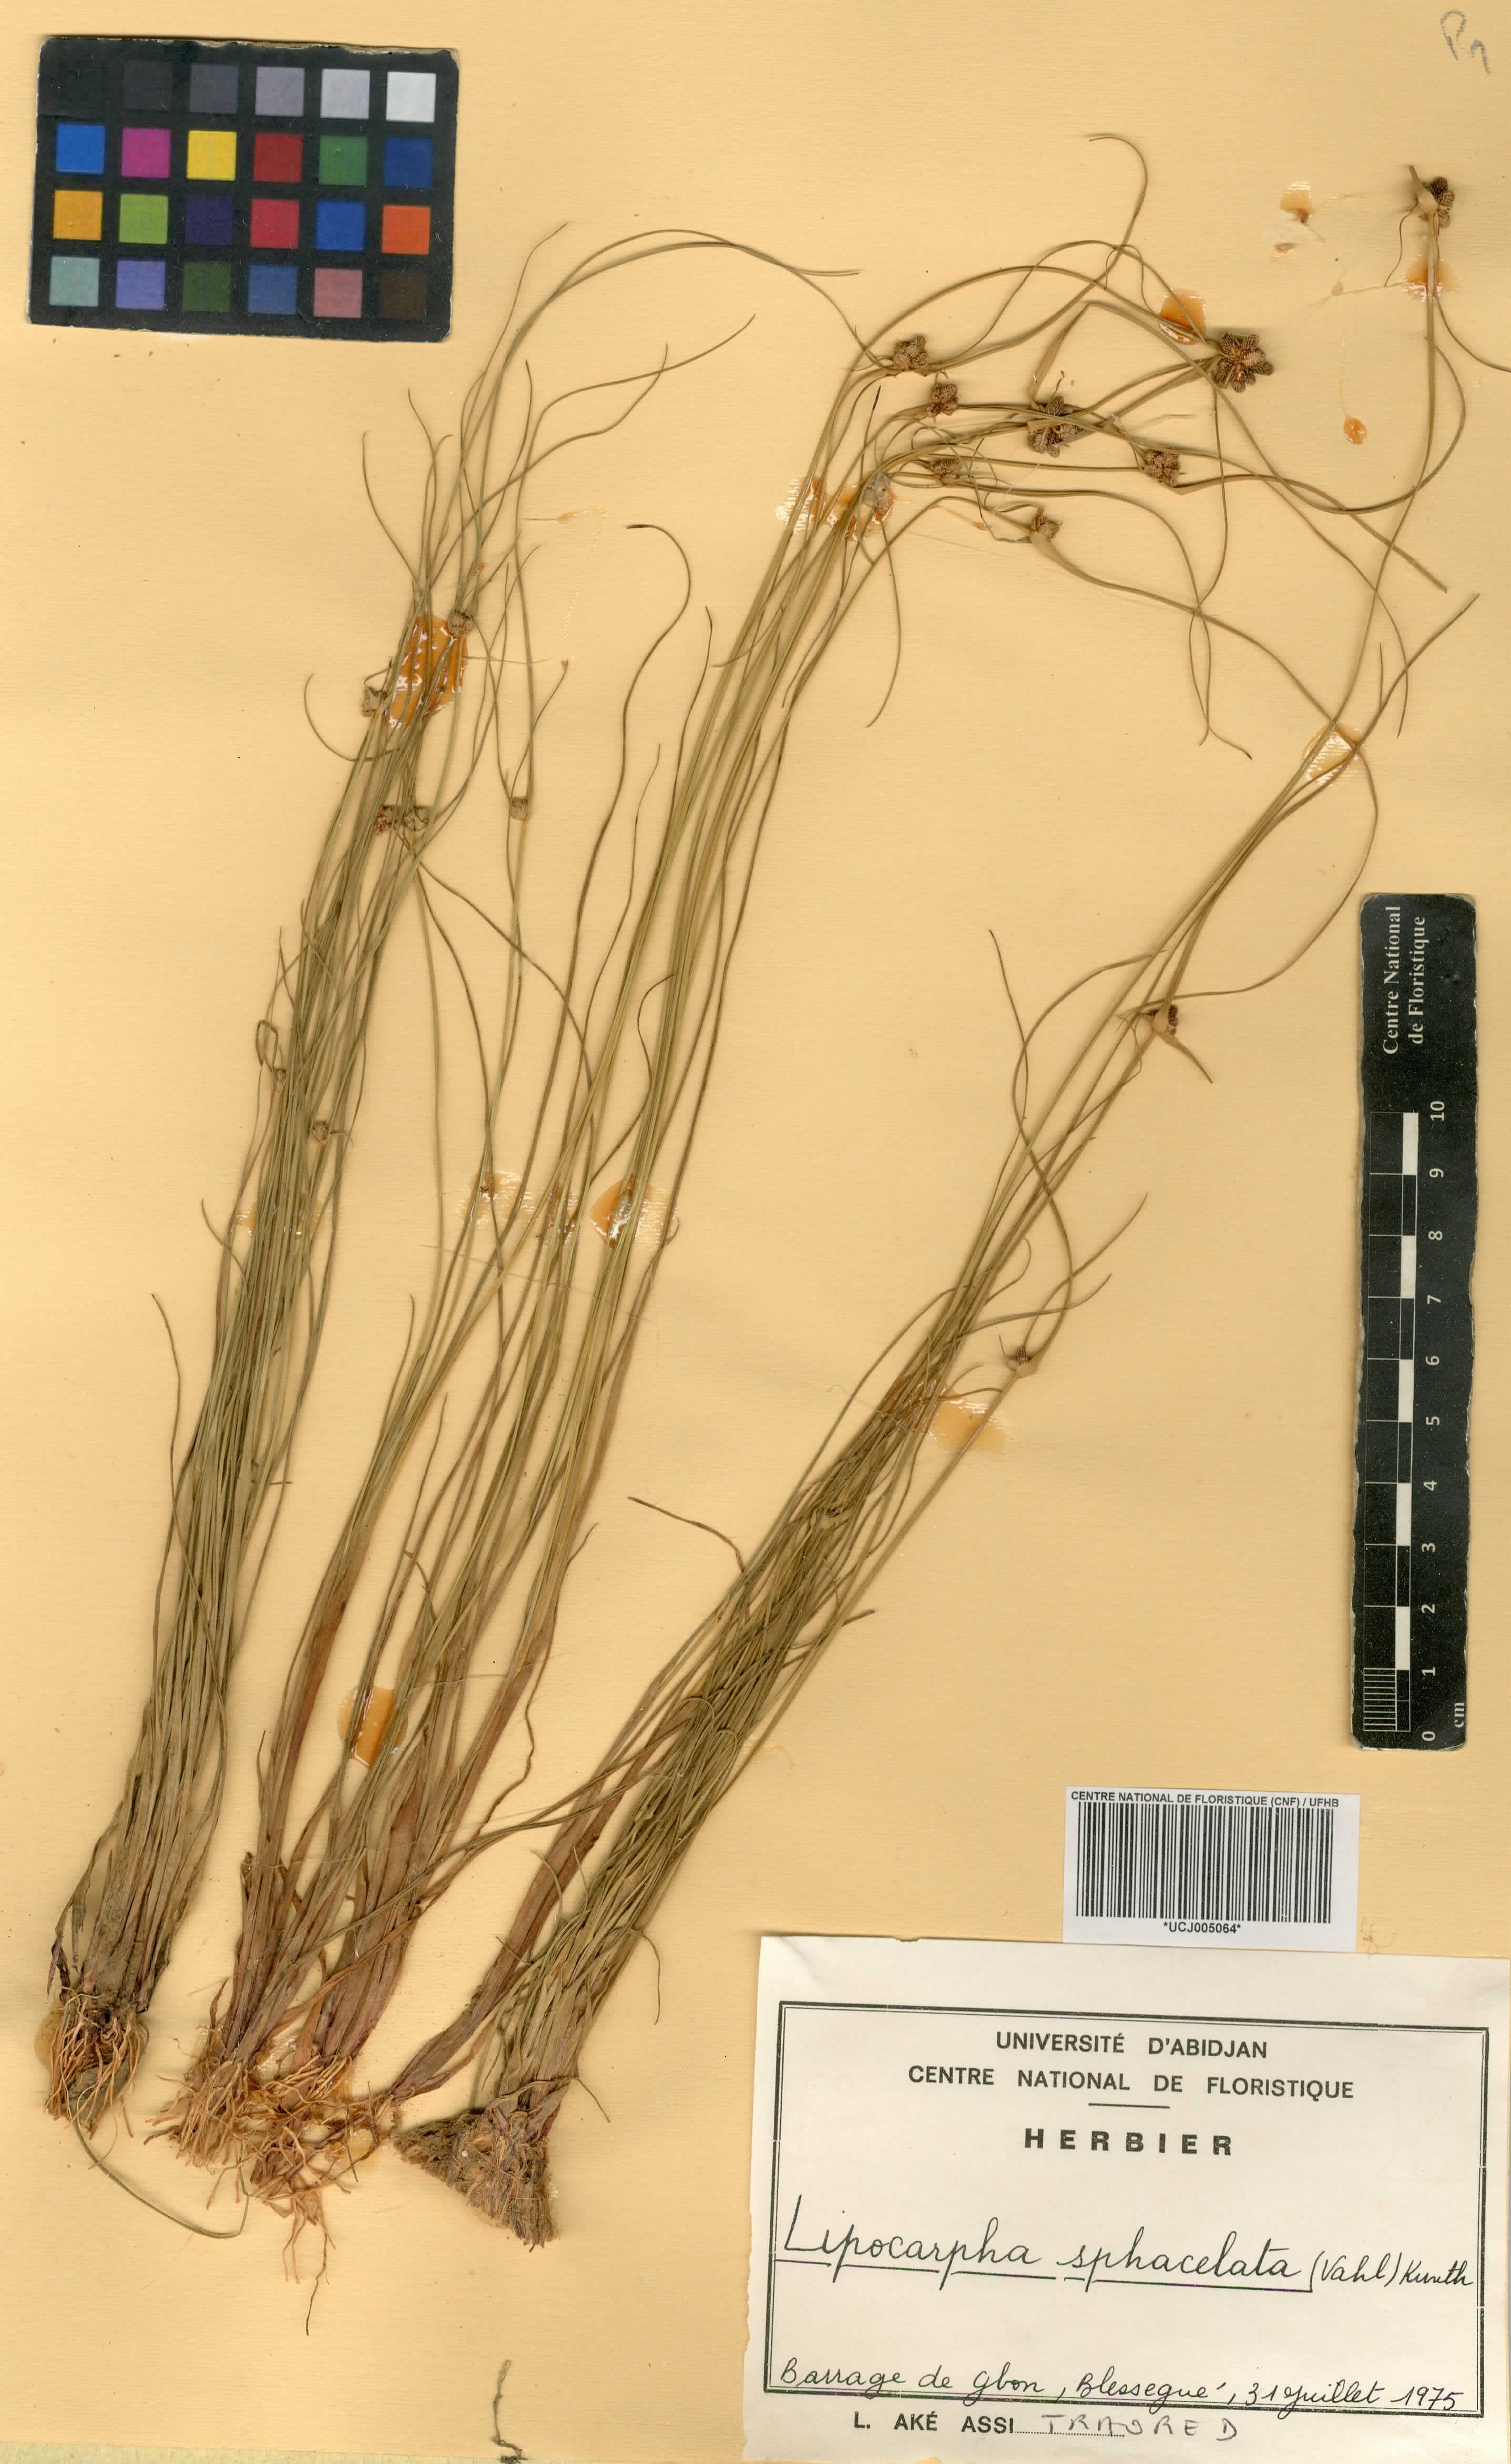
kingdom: Plantae
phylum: Tracheophyta
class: Liliopsida
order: Poales
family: Cyperaceae
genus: Cyperus
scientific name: Cyperus ceylanicus
